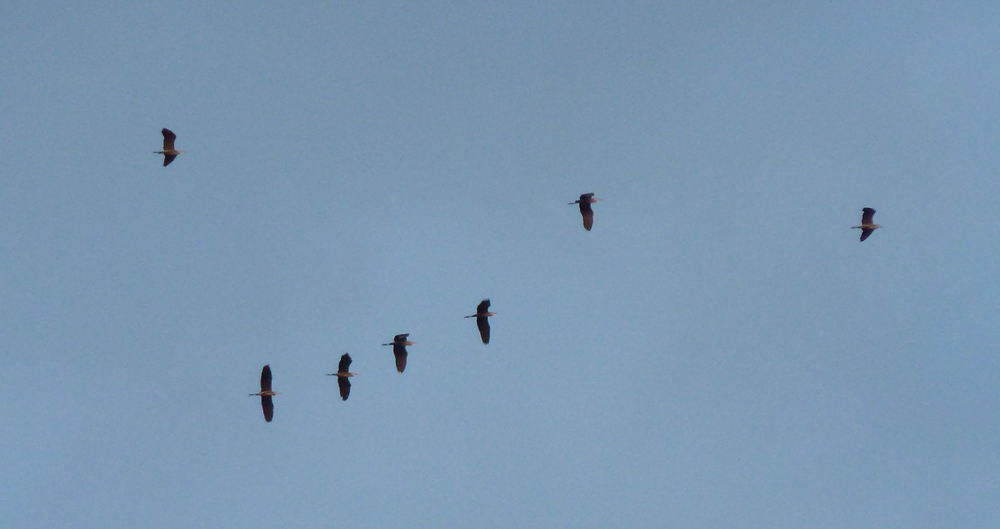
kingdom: Animalia
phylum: Chordata
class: Aves
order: Pelecaniformes
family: Ardeidae
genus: Ardea
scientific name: Ardea cinerea
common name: Grey heron
